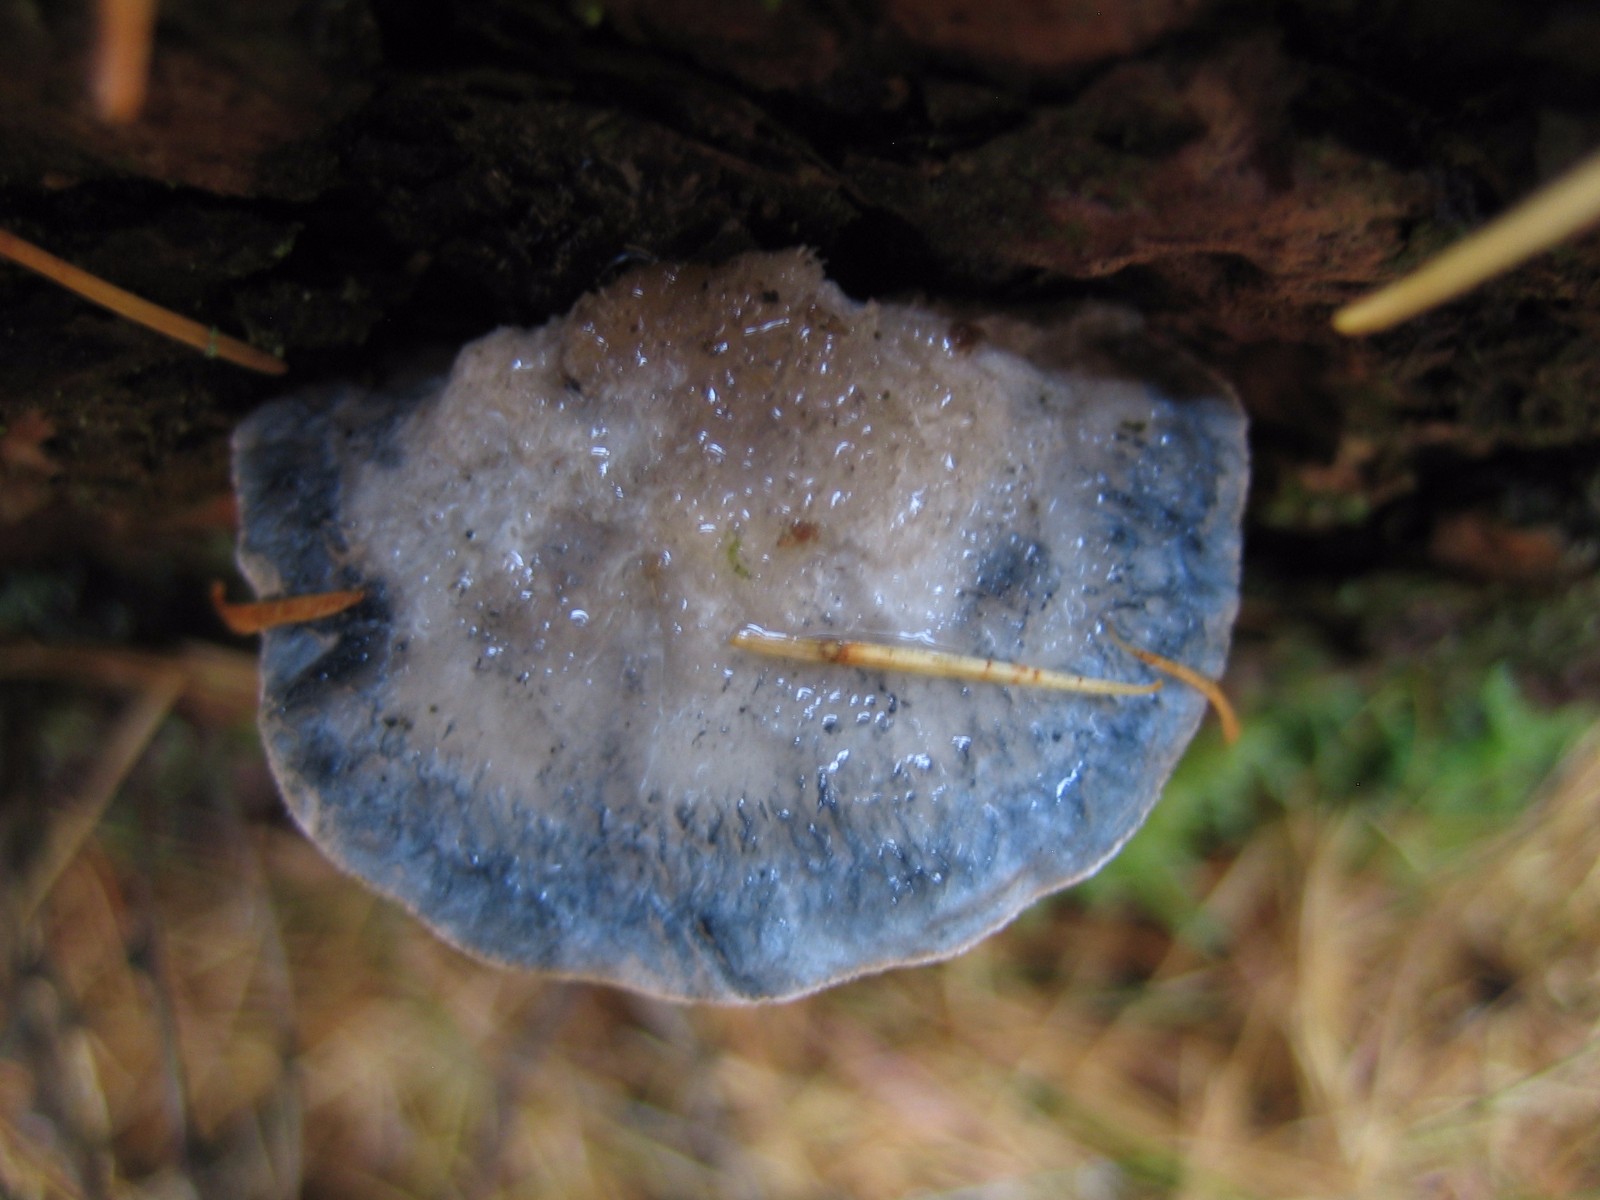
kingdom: Fungi
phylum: Basidiomycota
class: Agaricomycetes
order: Polyporales
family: Polyporaceae
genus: Cyanosporus
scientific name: Cyanosporus caesius
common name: blålig kødporesvamp
